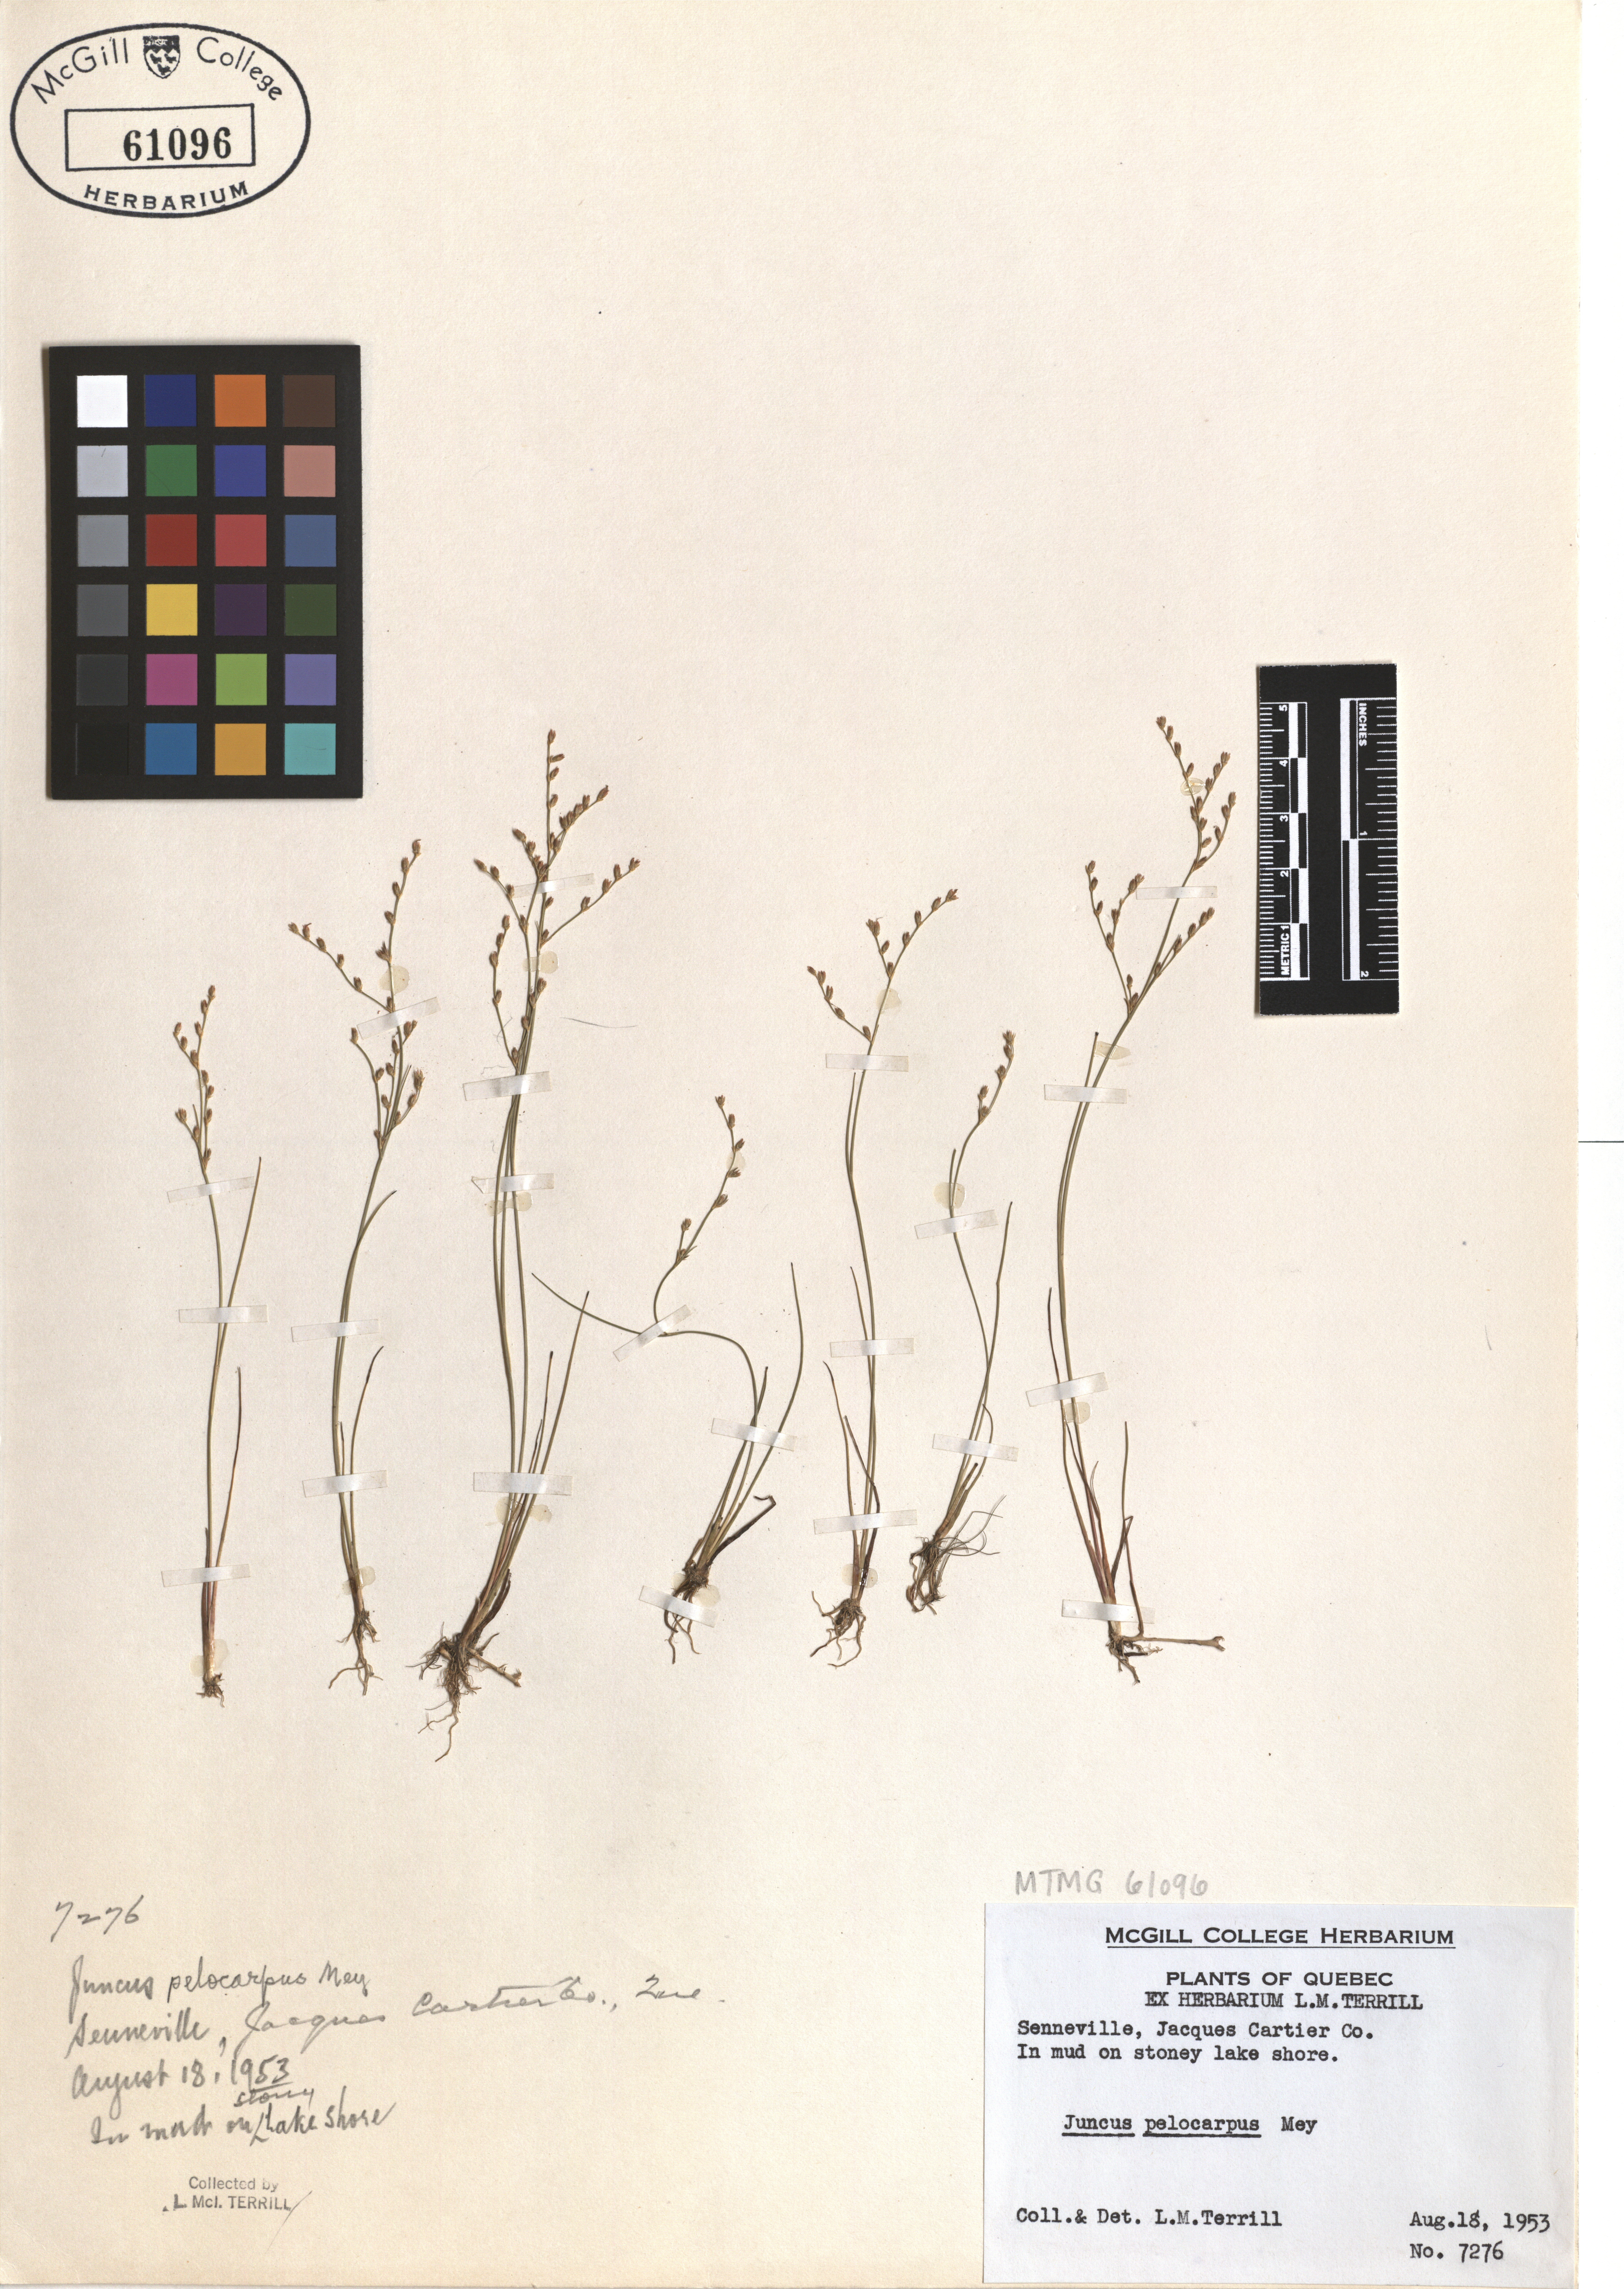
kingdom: Plantae
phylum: Tracheophyta
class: Liliopsida
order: Poales
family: Juncaceae
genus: Juncus
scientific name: Juncus pelocarpus
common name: Brown-fruited rush
